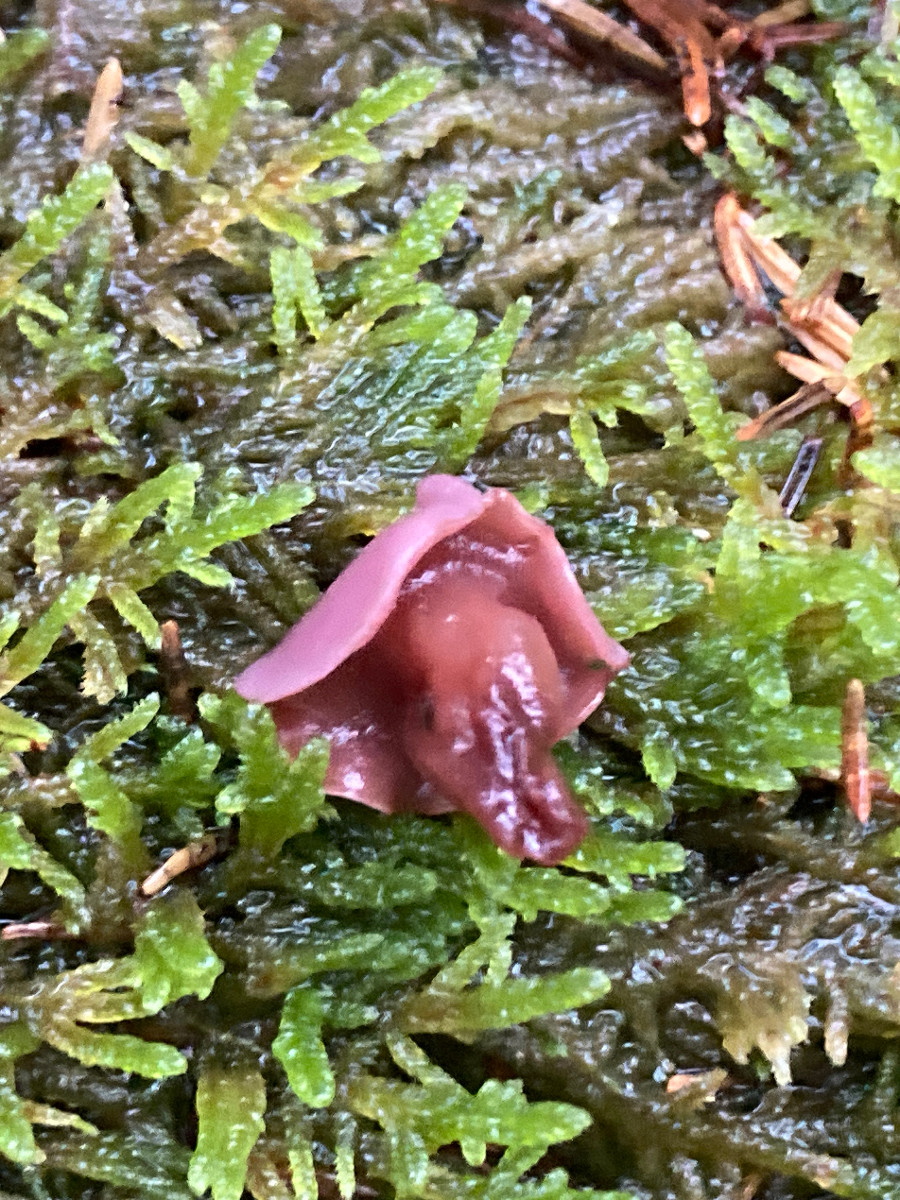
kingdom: Fungi
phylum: Ascomycota
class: Leotiomycetes
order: Helotiales
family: Gelatinodiscaceae
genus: Ascocoryne
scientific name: Ascocoryne cylichnium
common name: stor sejskive
